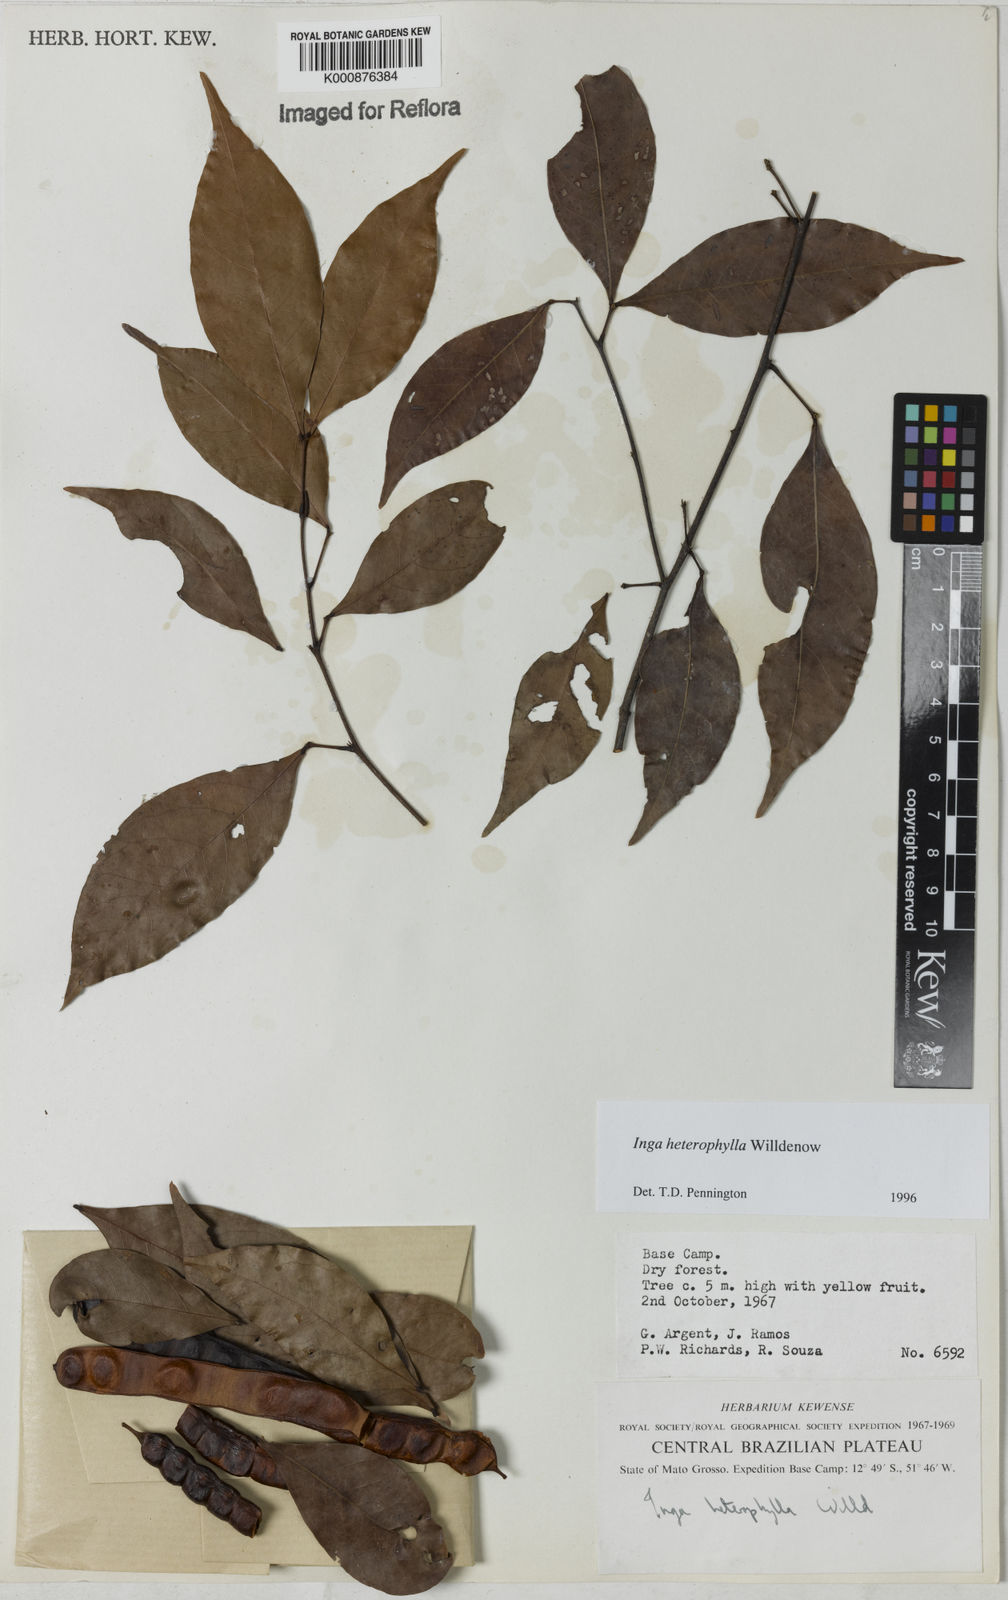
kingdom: Plantae
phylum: Tracheophyta
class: Magnoliopsida
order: Fabales
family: Fabaceae
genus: Inga
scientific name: Inga heterophylla
